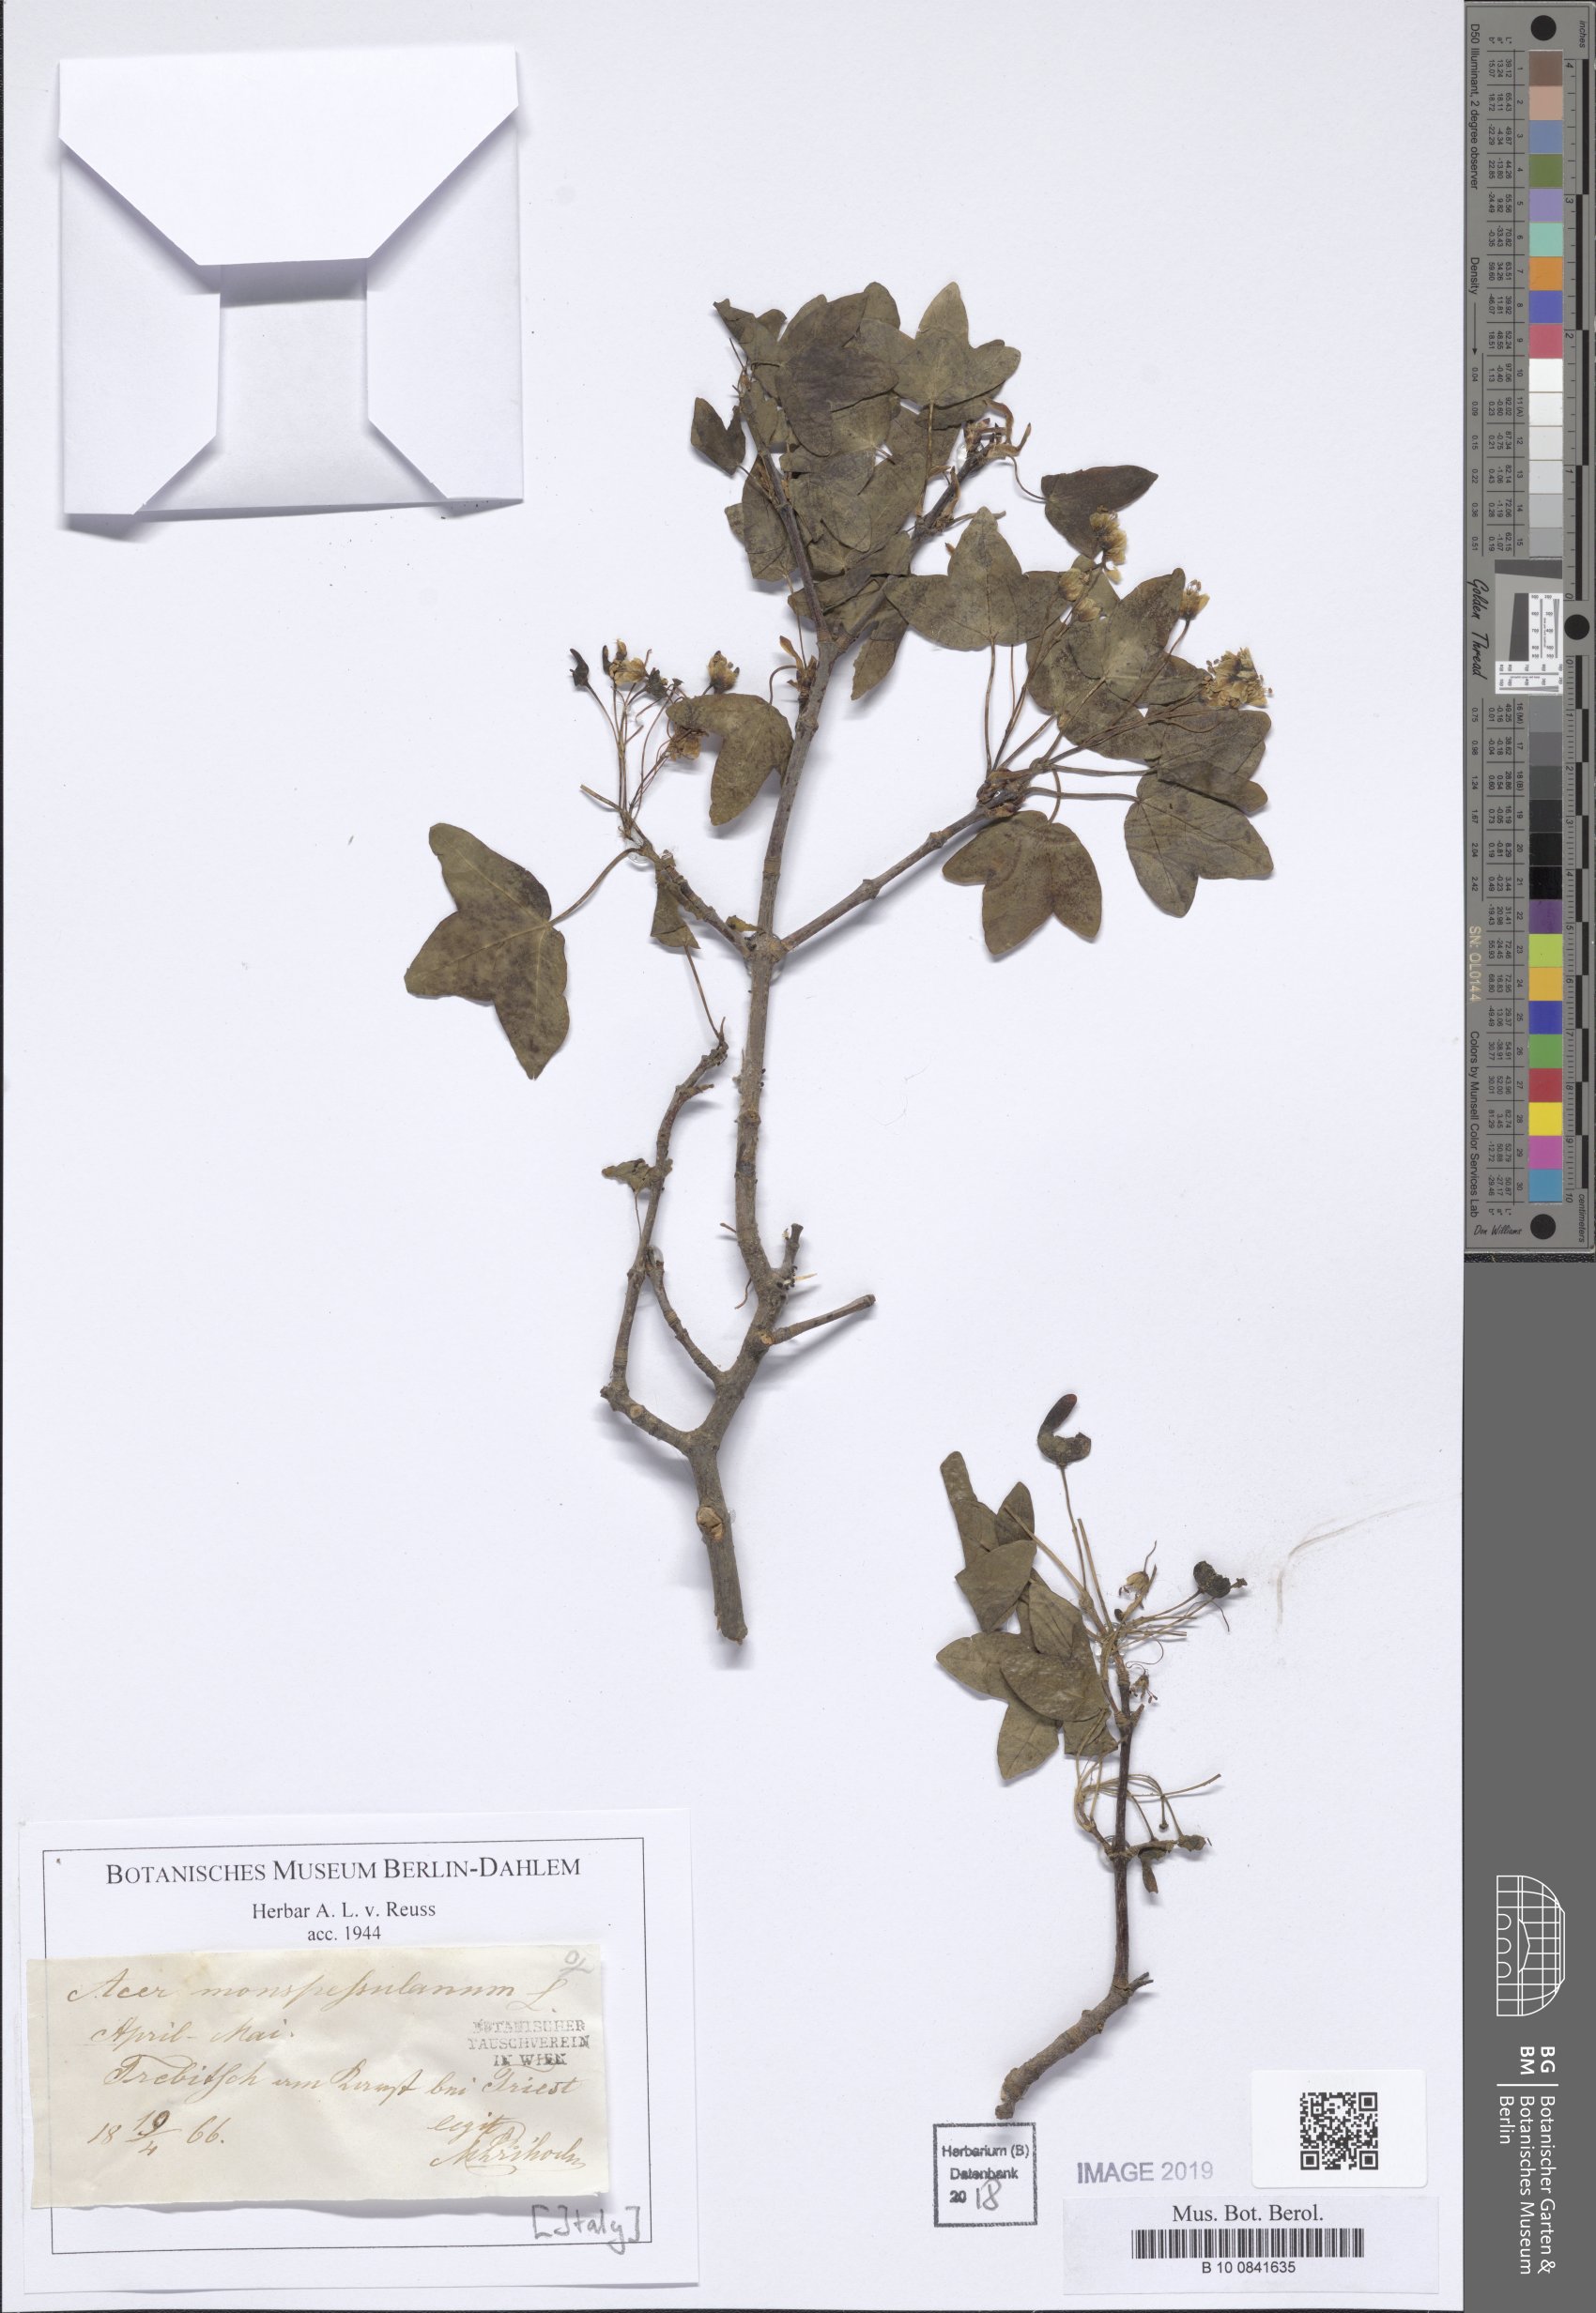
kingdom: Plantae
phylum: Tracheophyta
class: Magnoliopsida
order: Sapindales
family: Sapindaceae
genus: Acer
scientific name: Acer monspessulanum
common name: Montpellier maple
